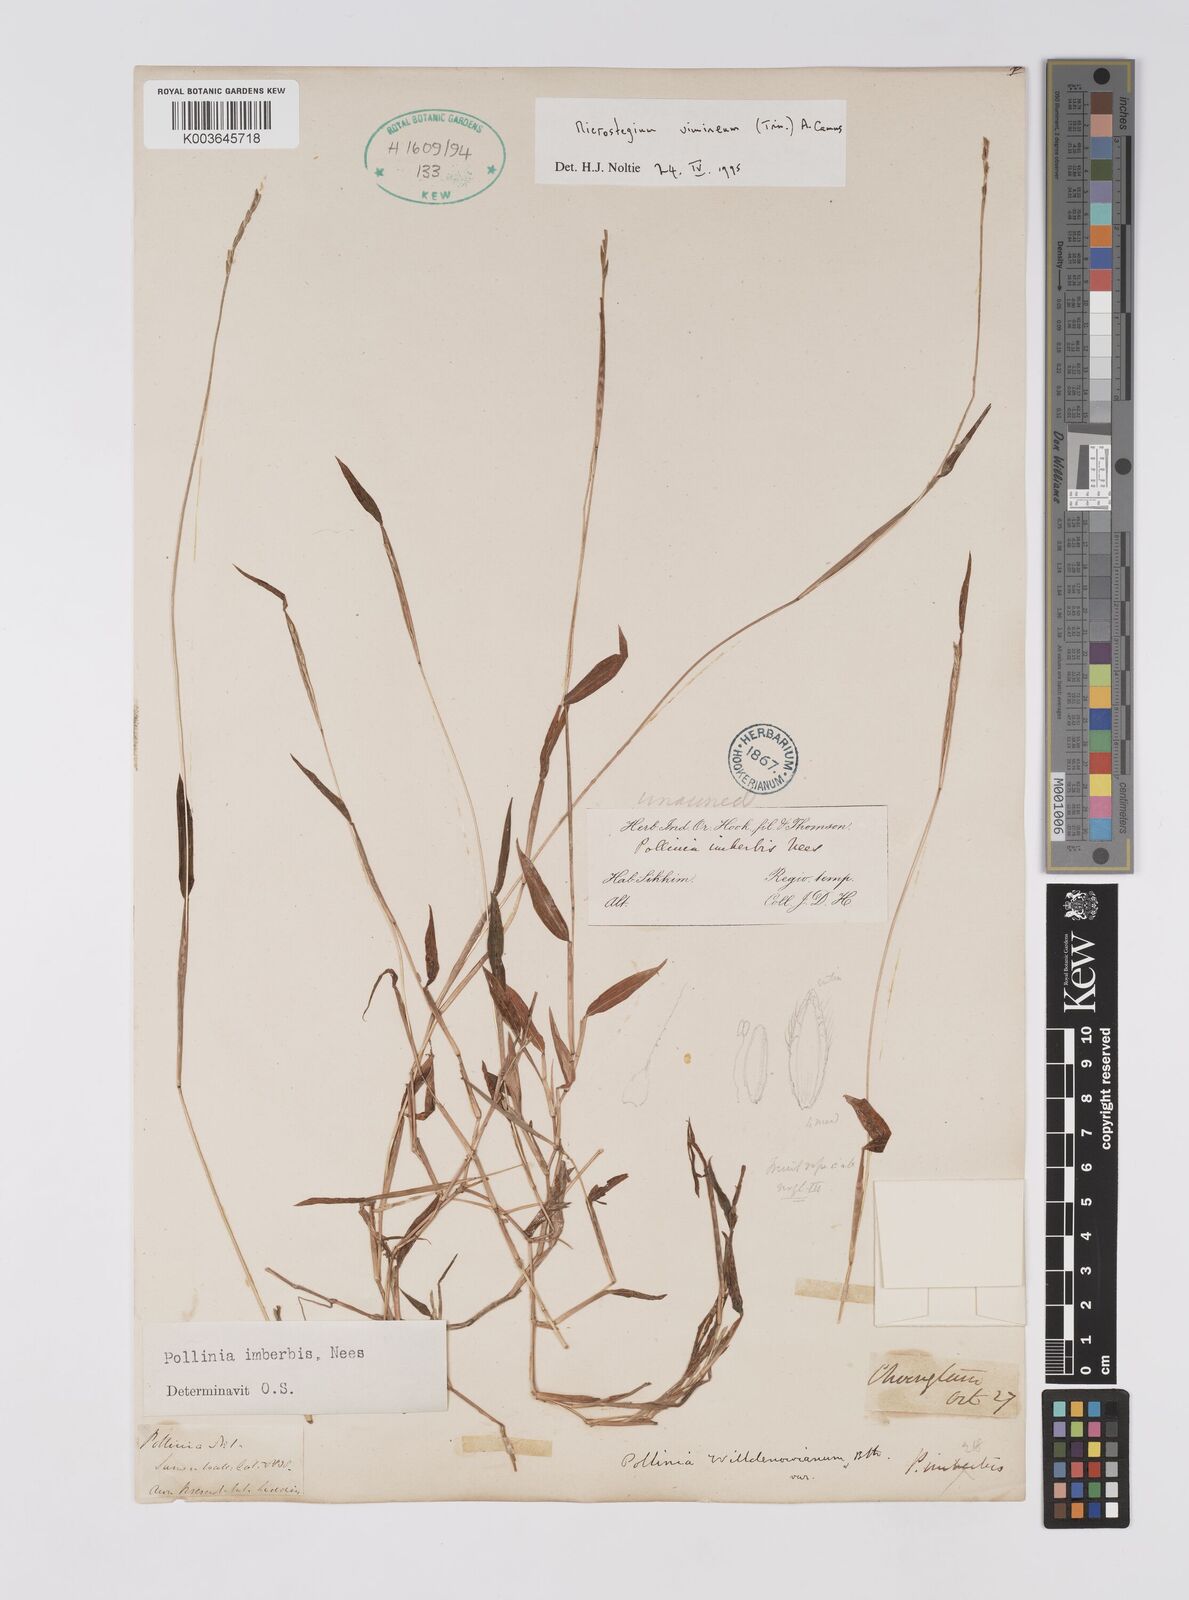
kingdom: Plantae
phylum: Tracheophyta
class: Liliopsida
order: Poales
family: Poaceae
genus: Microstegium
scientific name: Microstegium vimineum
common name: Japanese stiltgrass
